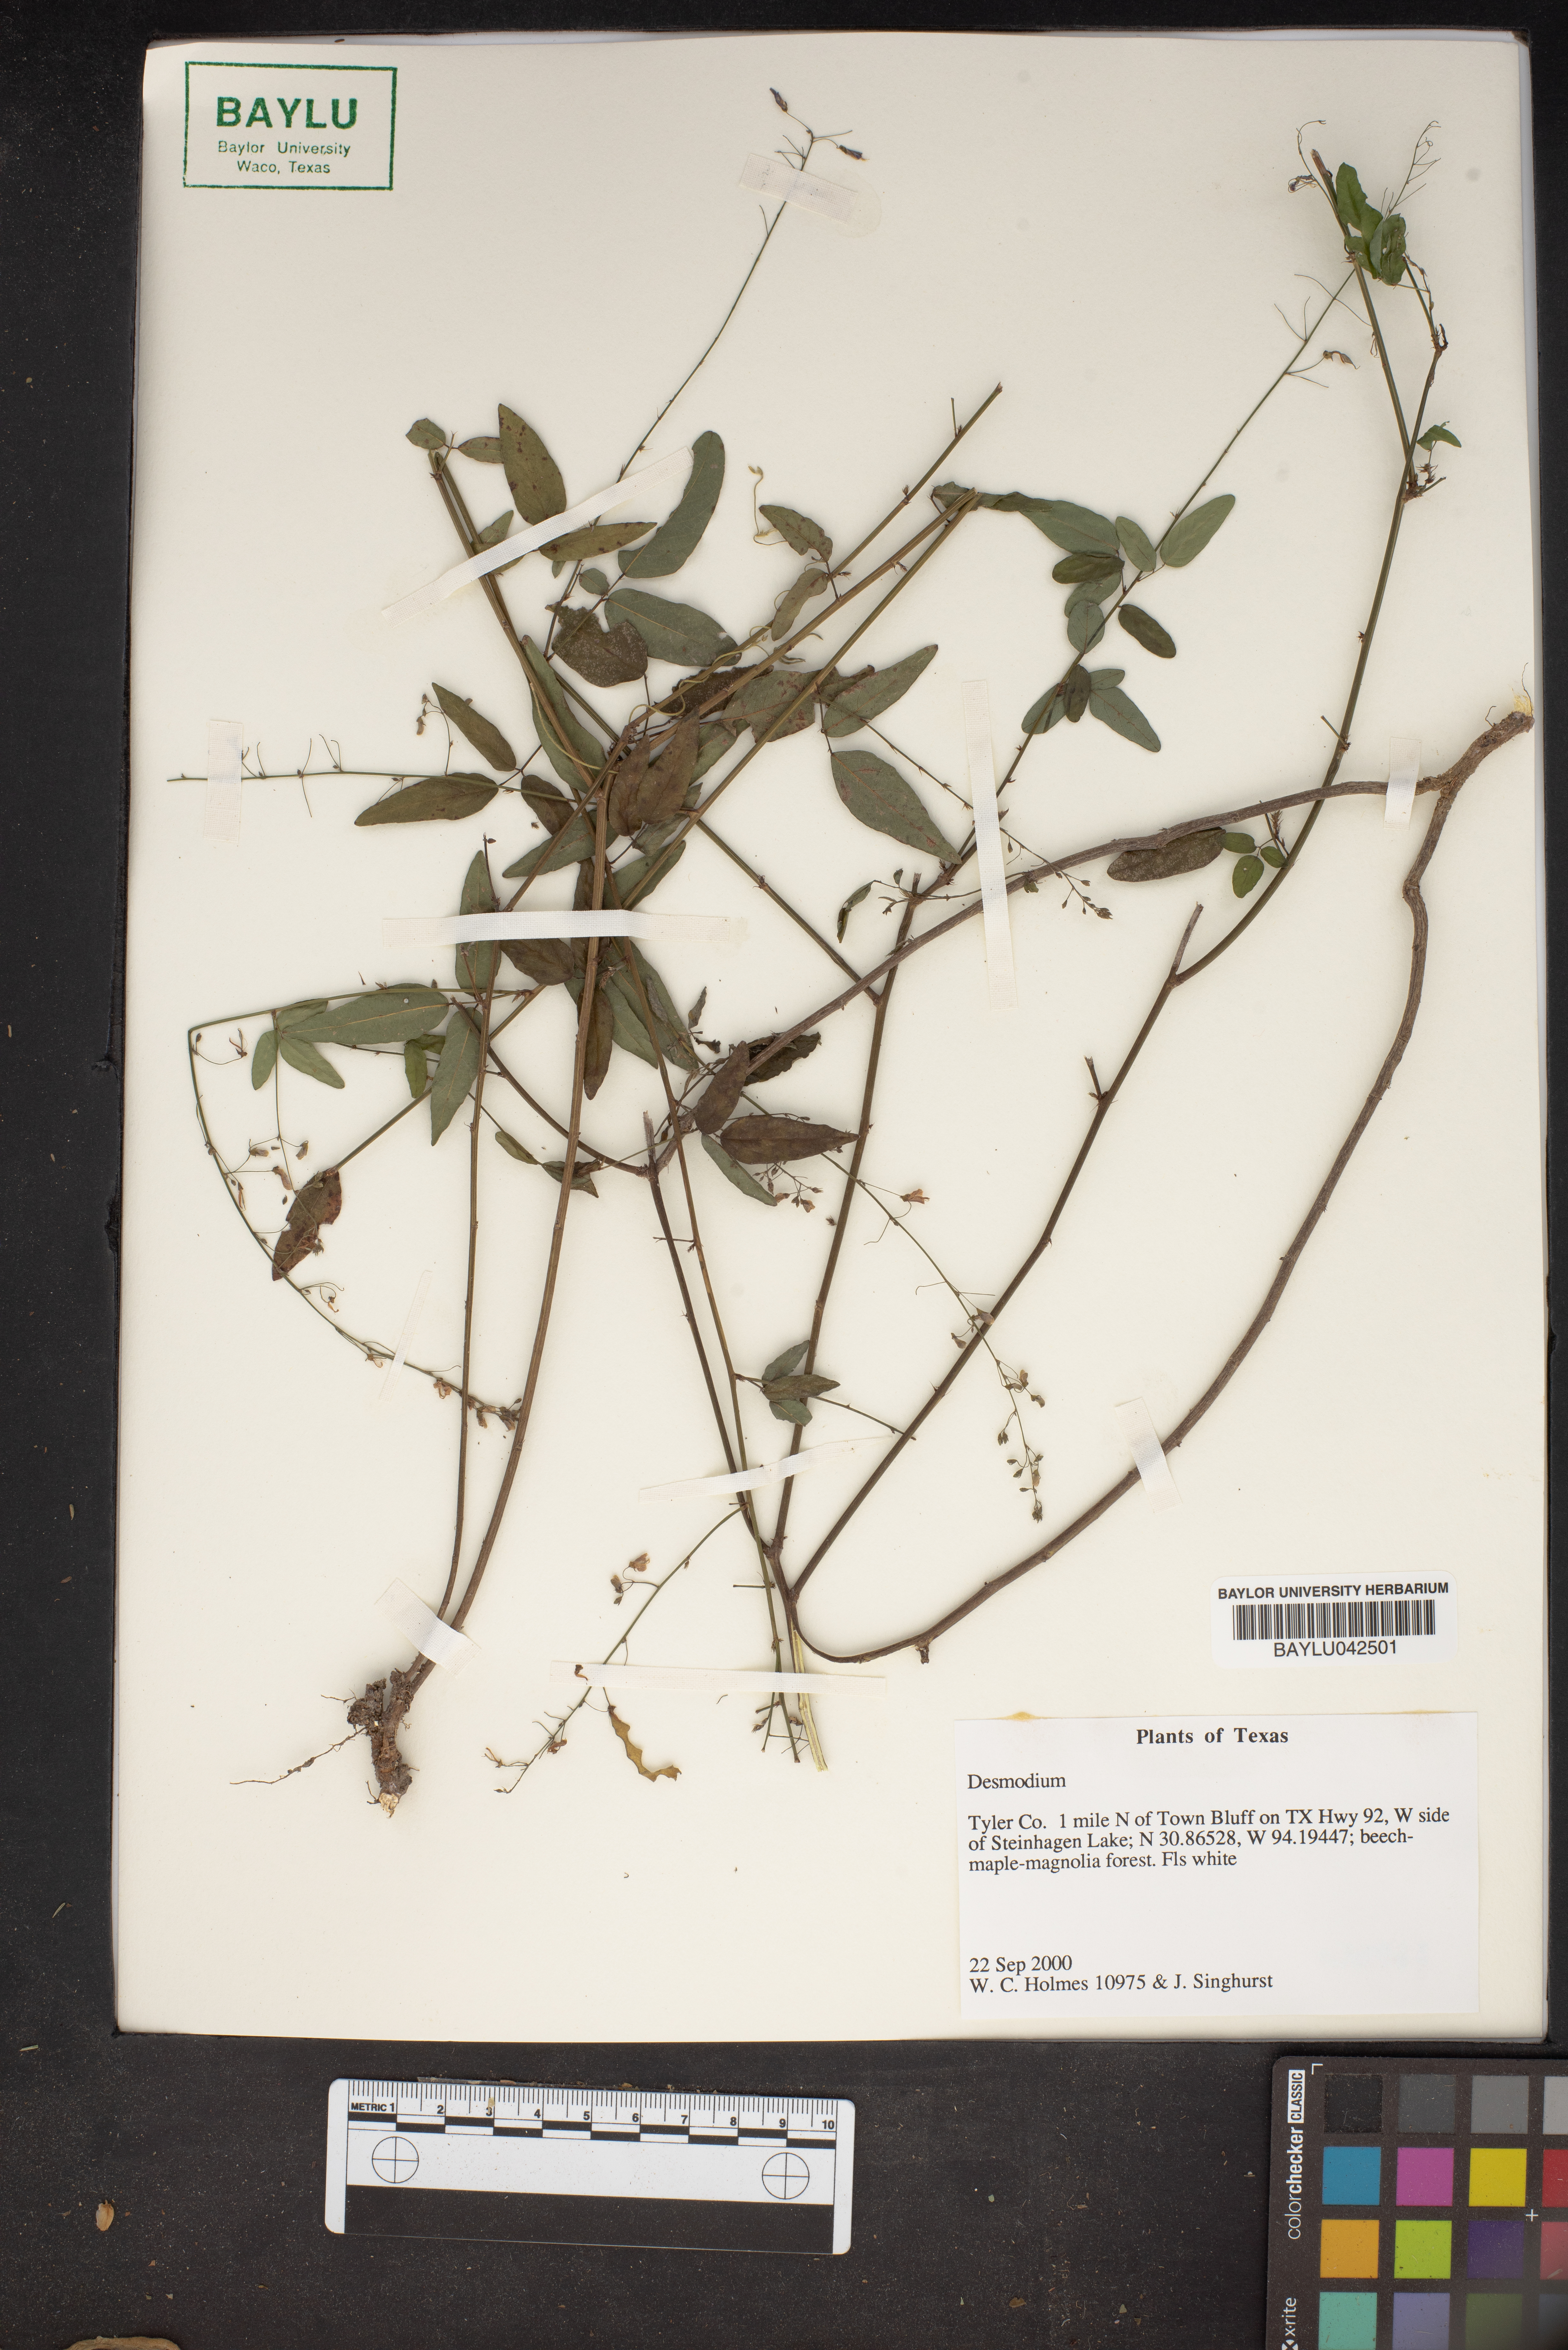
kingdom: Plantae
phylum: Tracheophyta
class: Magnoliopsida
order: Fabales
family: Fabaceae
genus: Desmodium
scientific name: Desmodium
